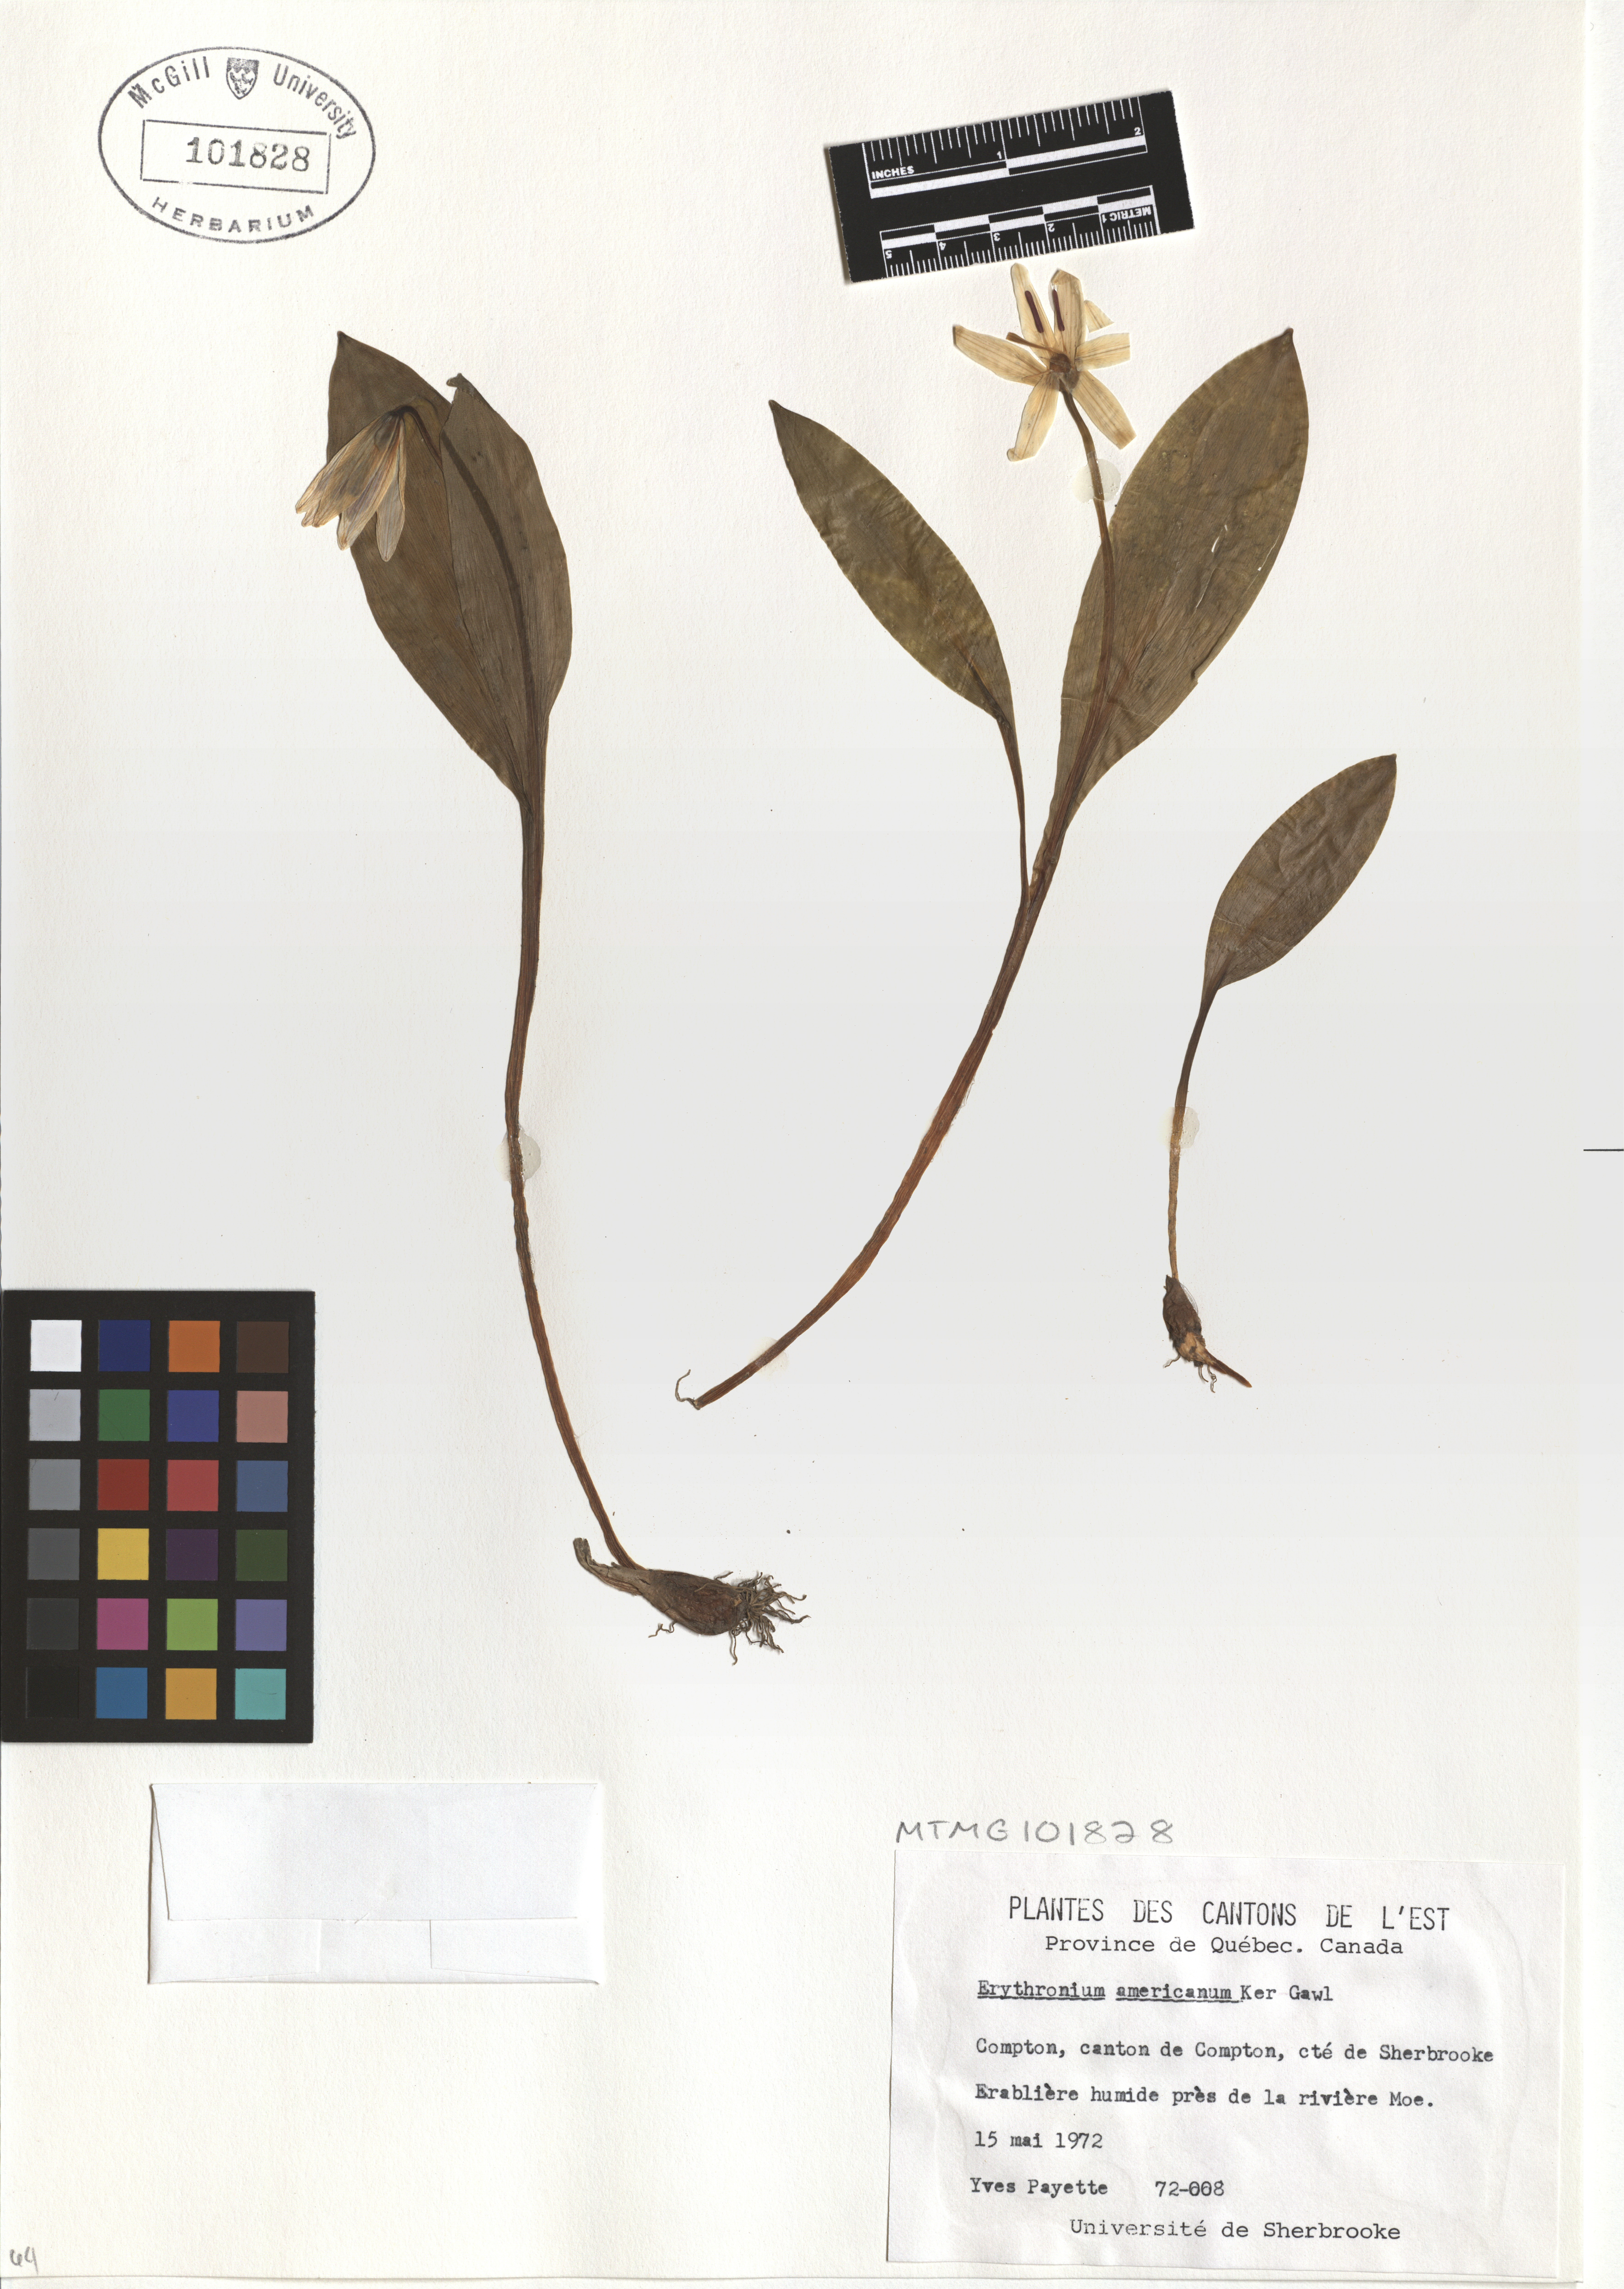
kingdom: Plantae
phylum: Tracheophyta
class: Liliopsida
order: Liliales
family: Liliaceae
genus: Erythronium
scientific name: Erythronium americanum
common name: Yellow adder's-tongue
